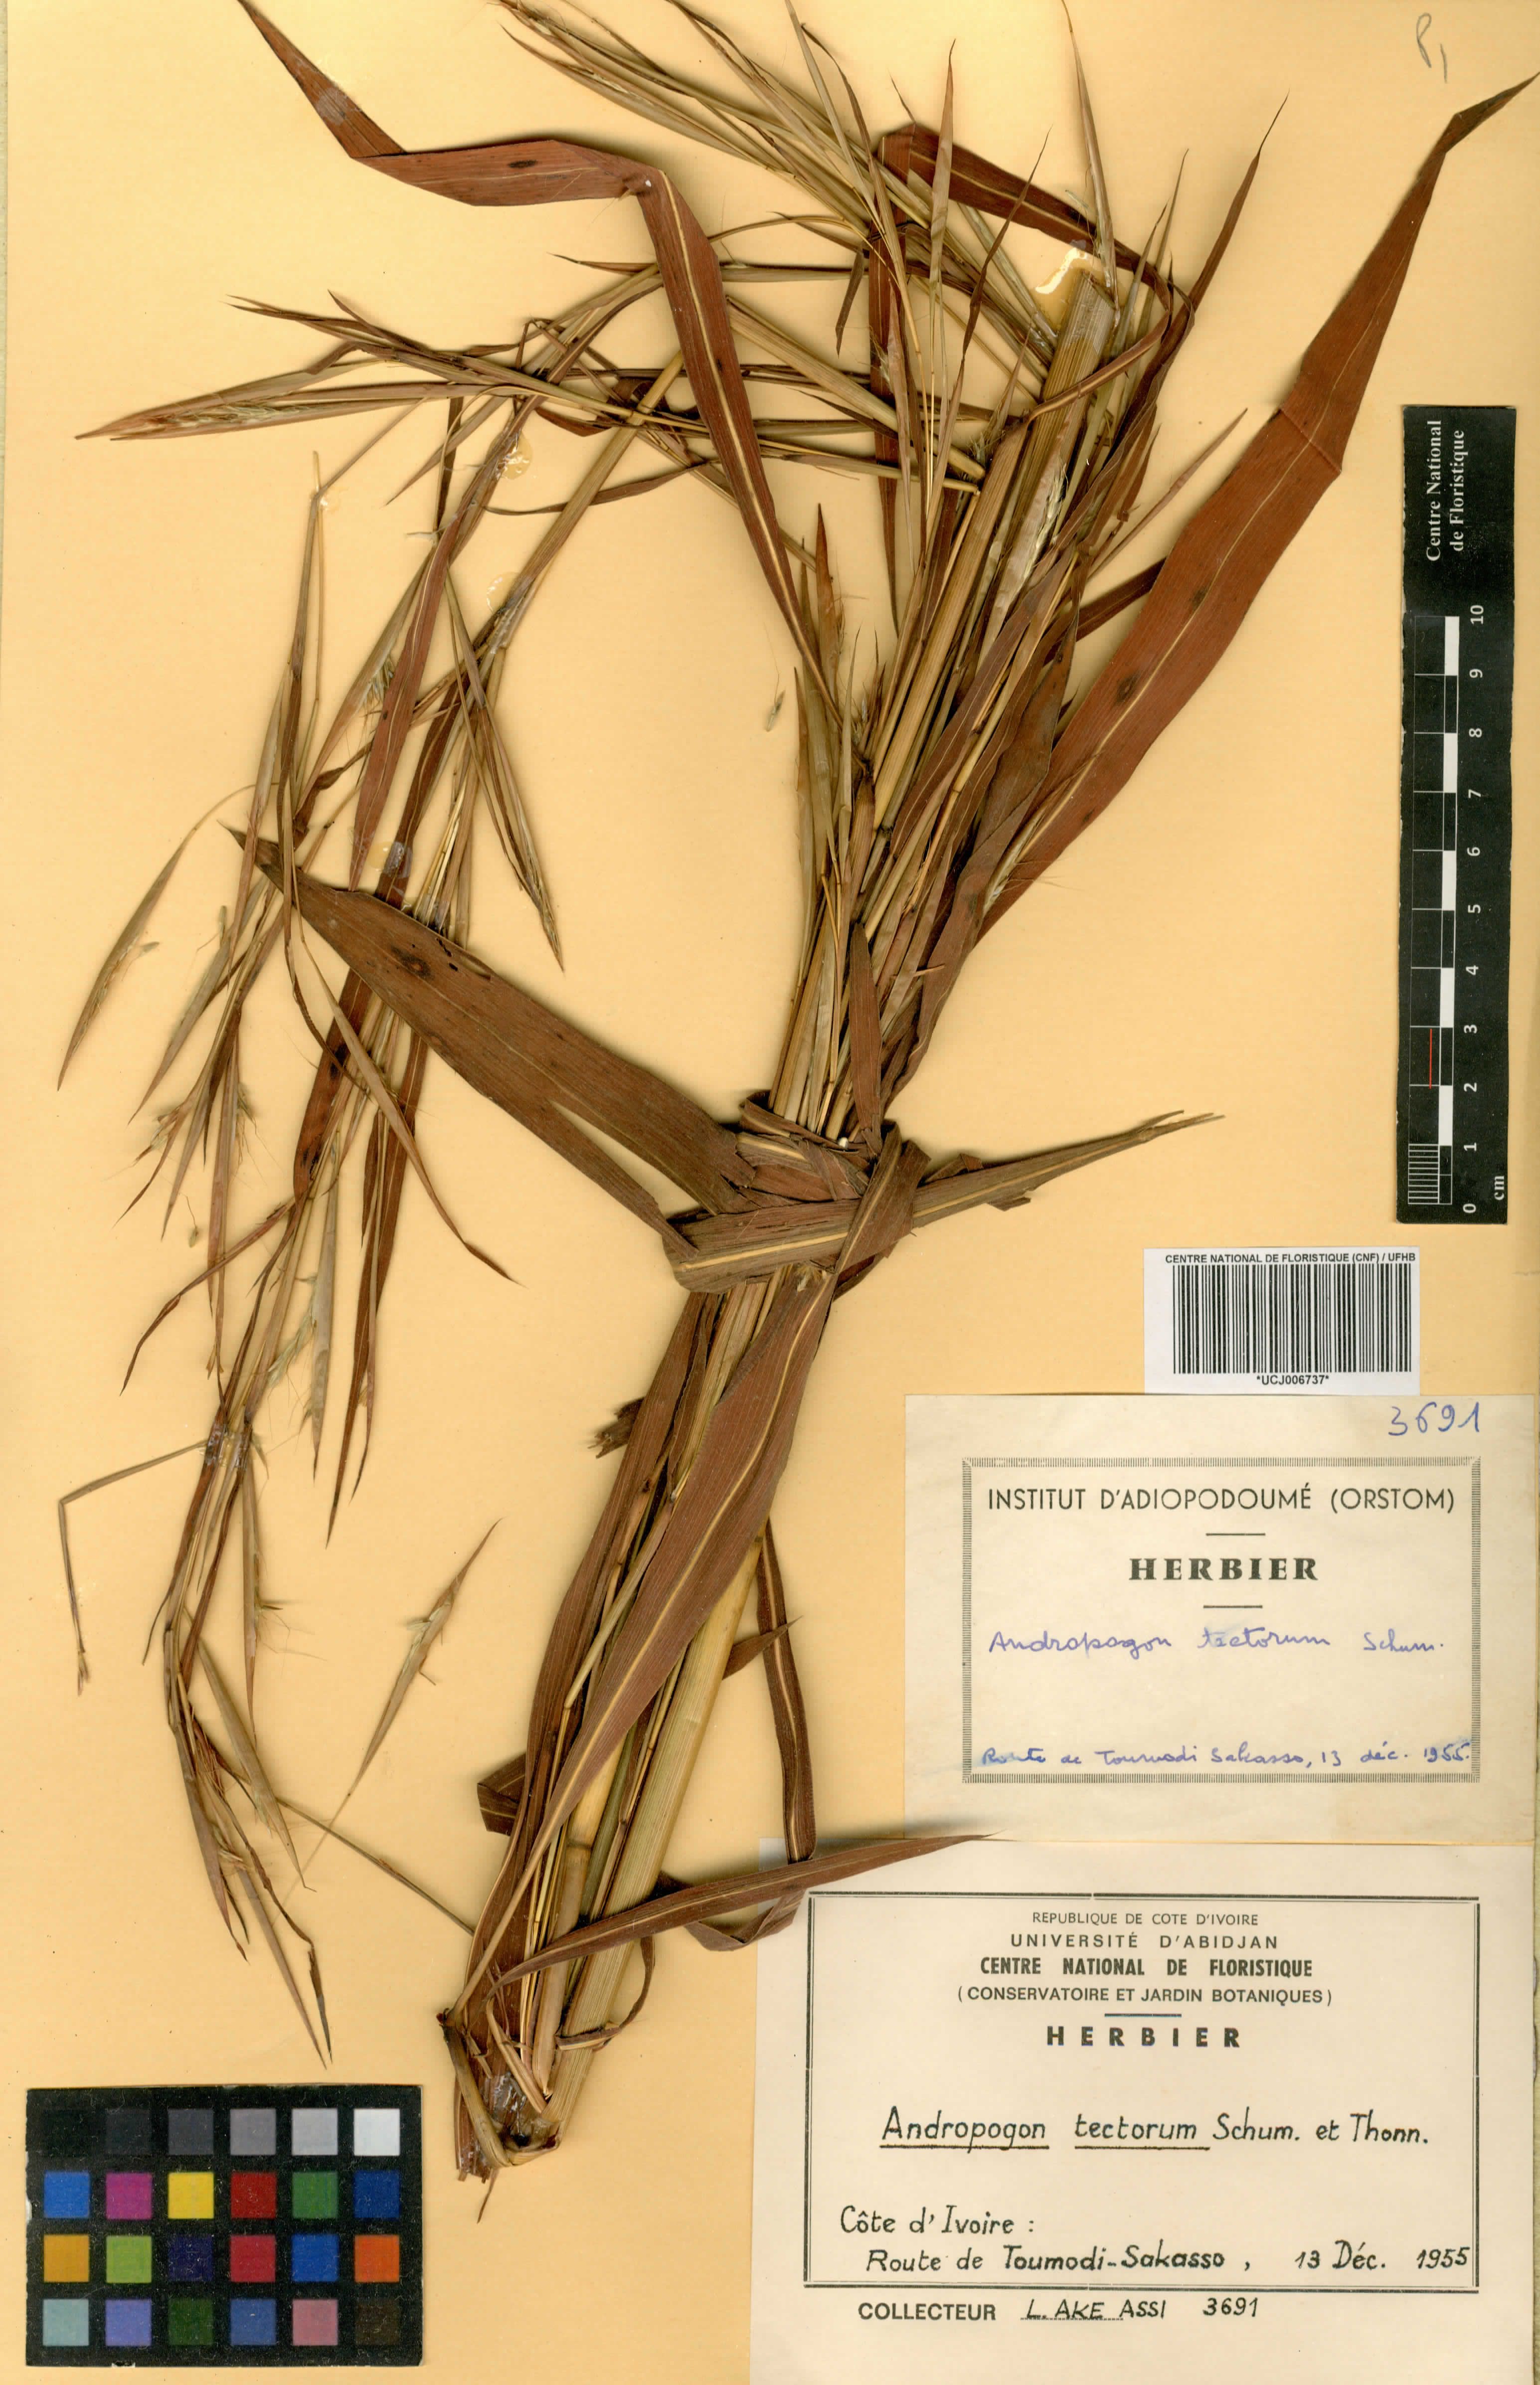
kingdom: Plantae
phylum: Tracheophyta
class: Liliopsida
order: Poales
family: Poaceae
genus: Andropogon
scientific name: Andropogon tectorum
